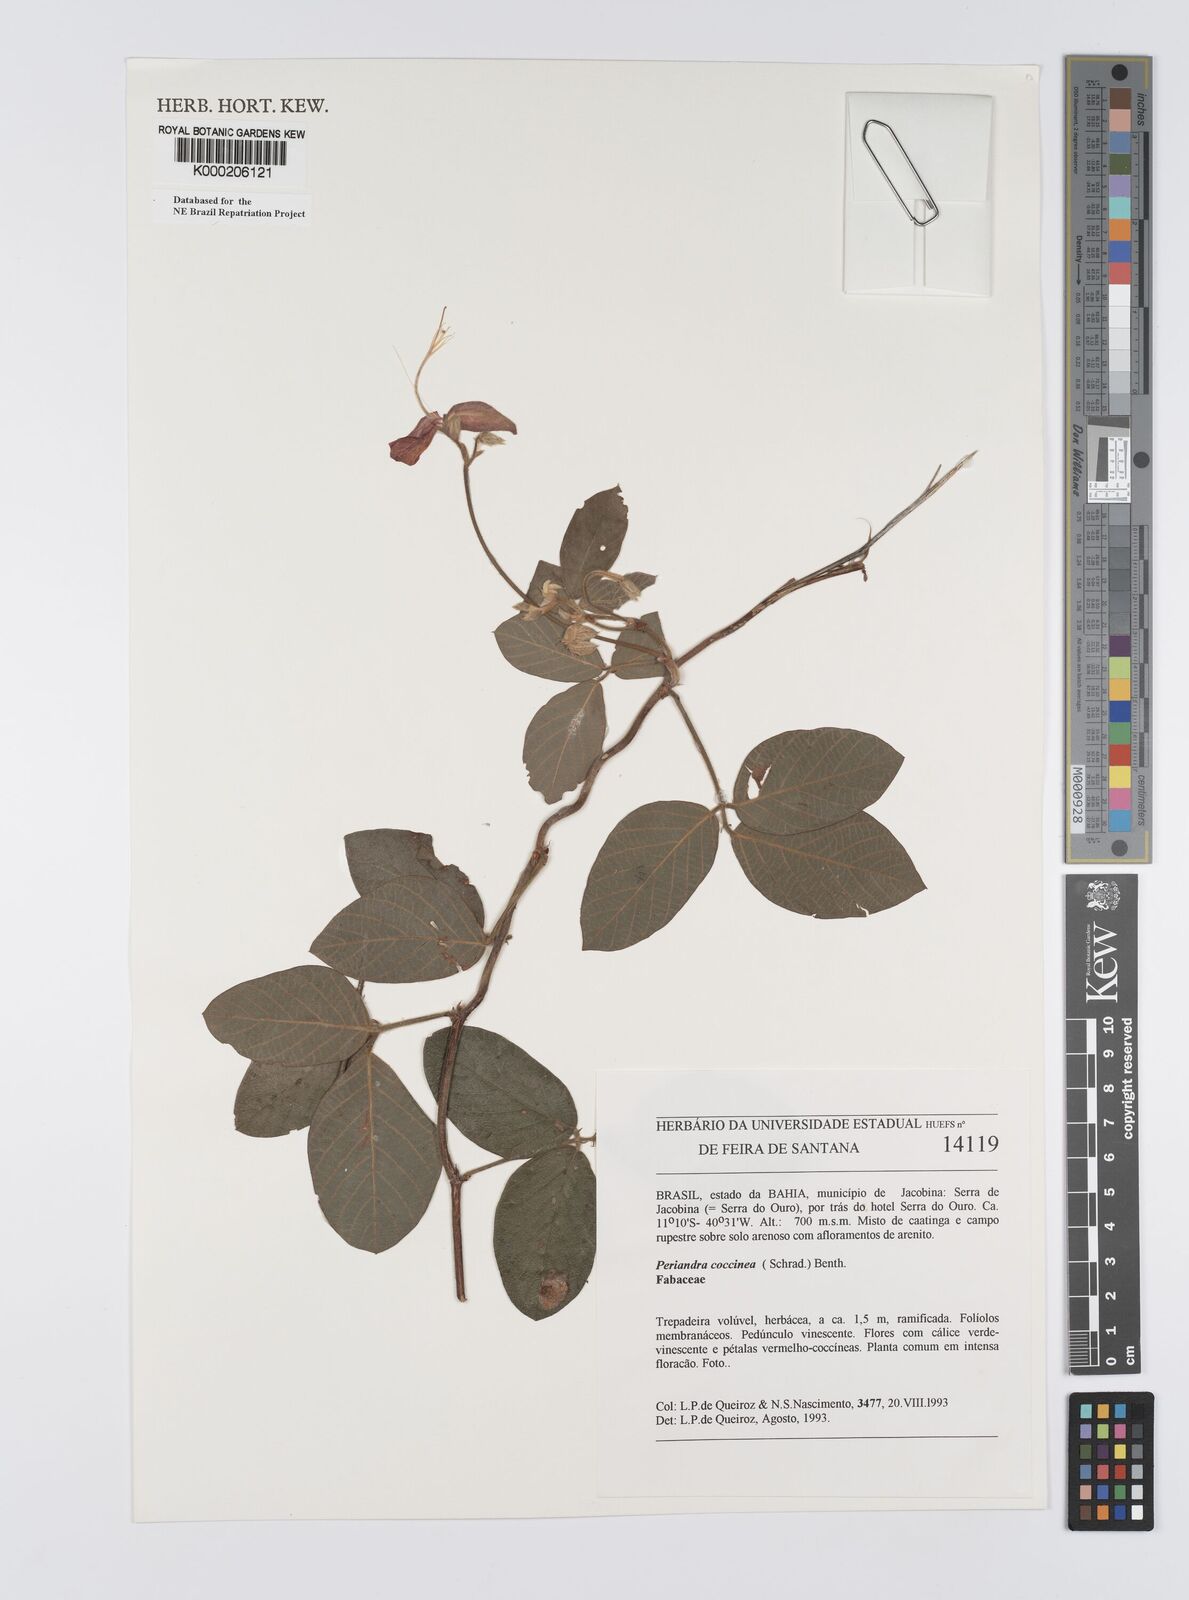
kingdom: Plantae
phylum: Tracheophyta
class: Magnoliopsida
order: Fabales
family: Fabaceae
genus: Periandra
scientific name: Periandra coccinea
